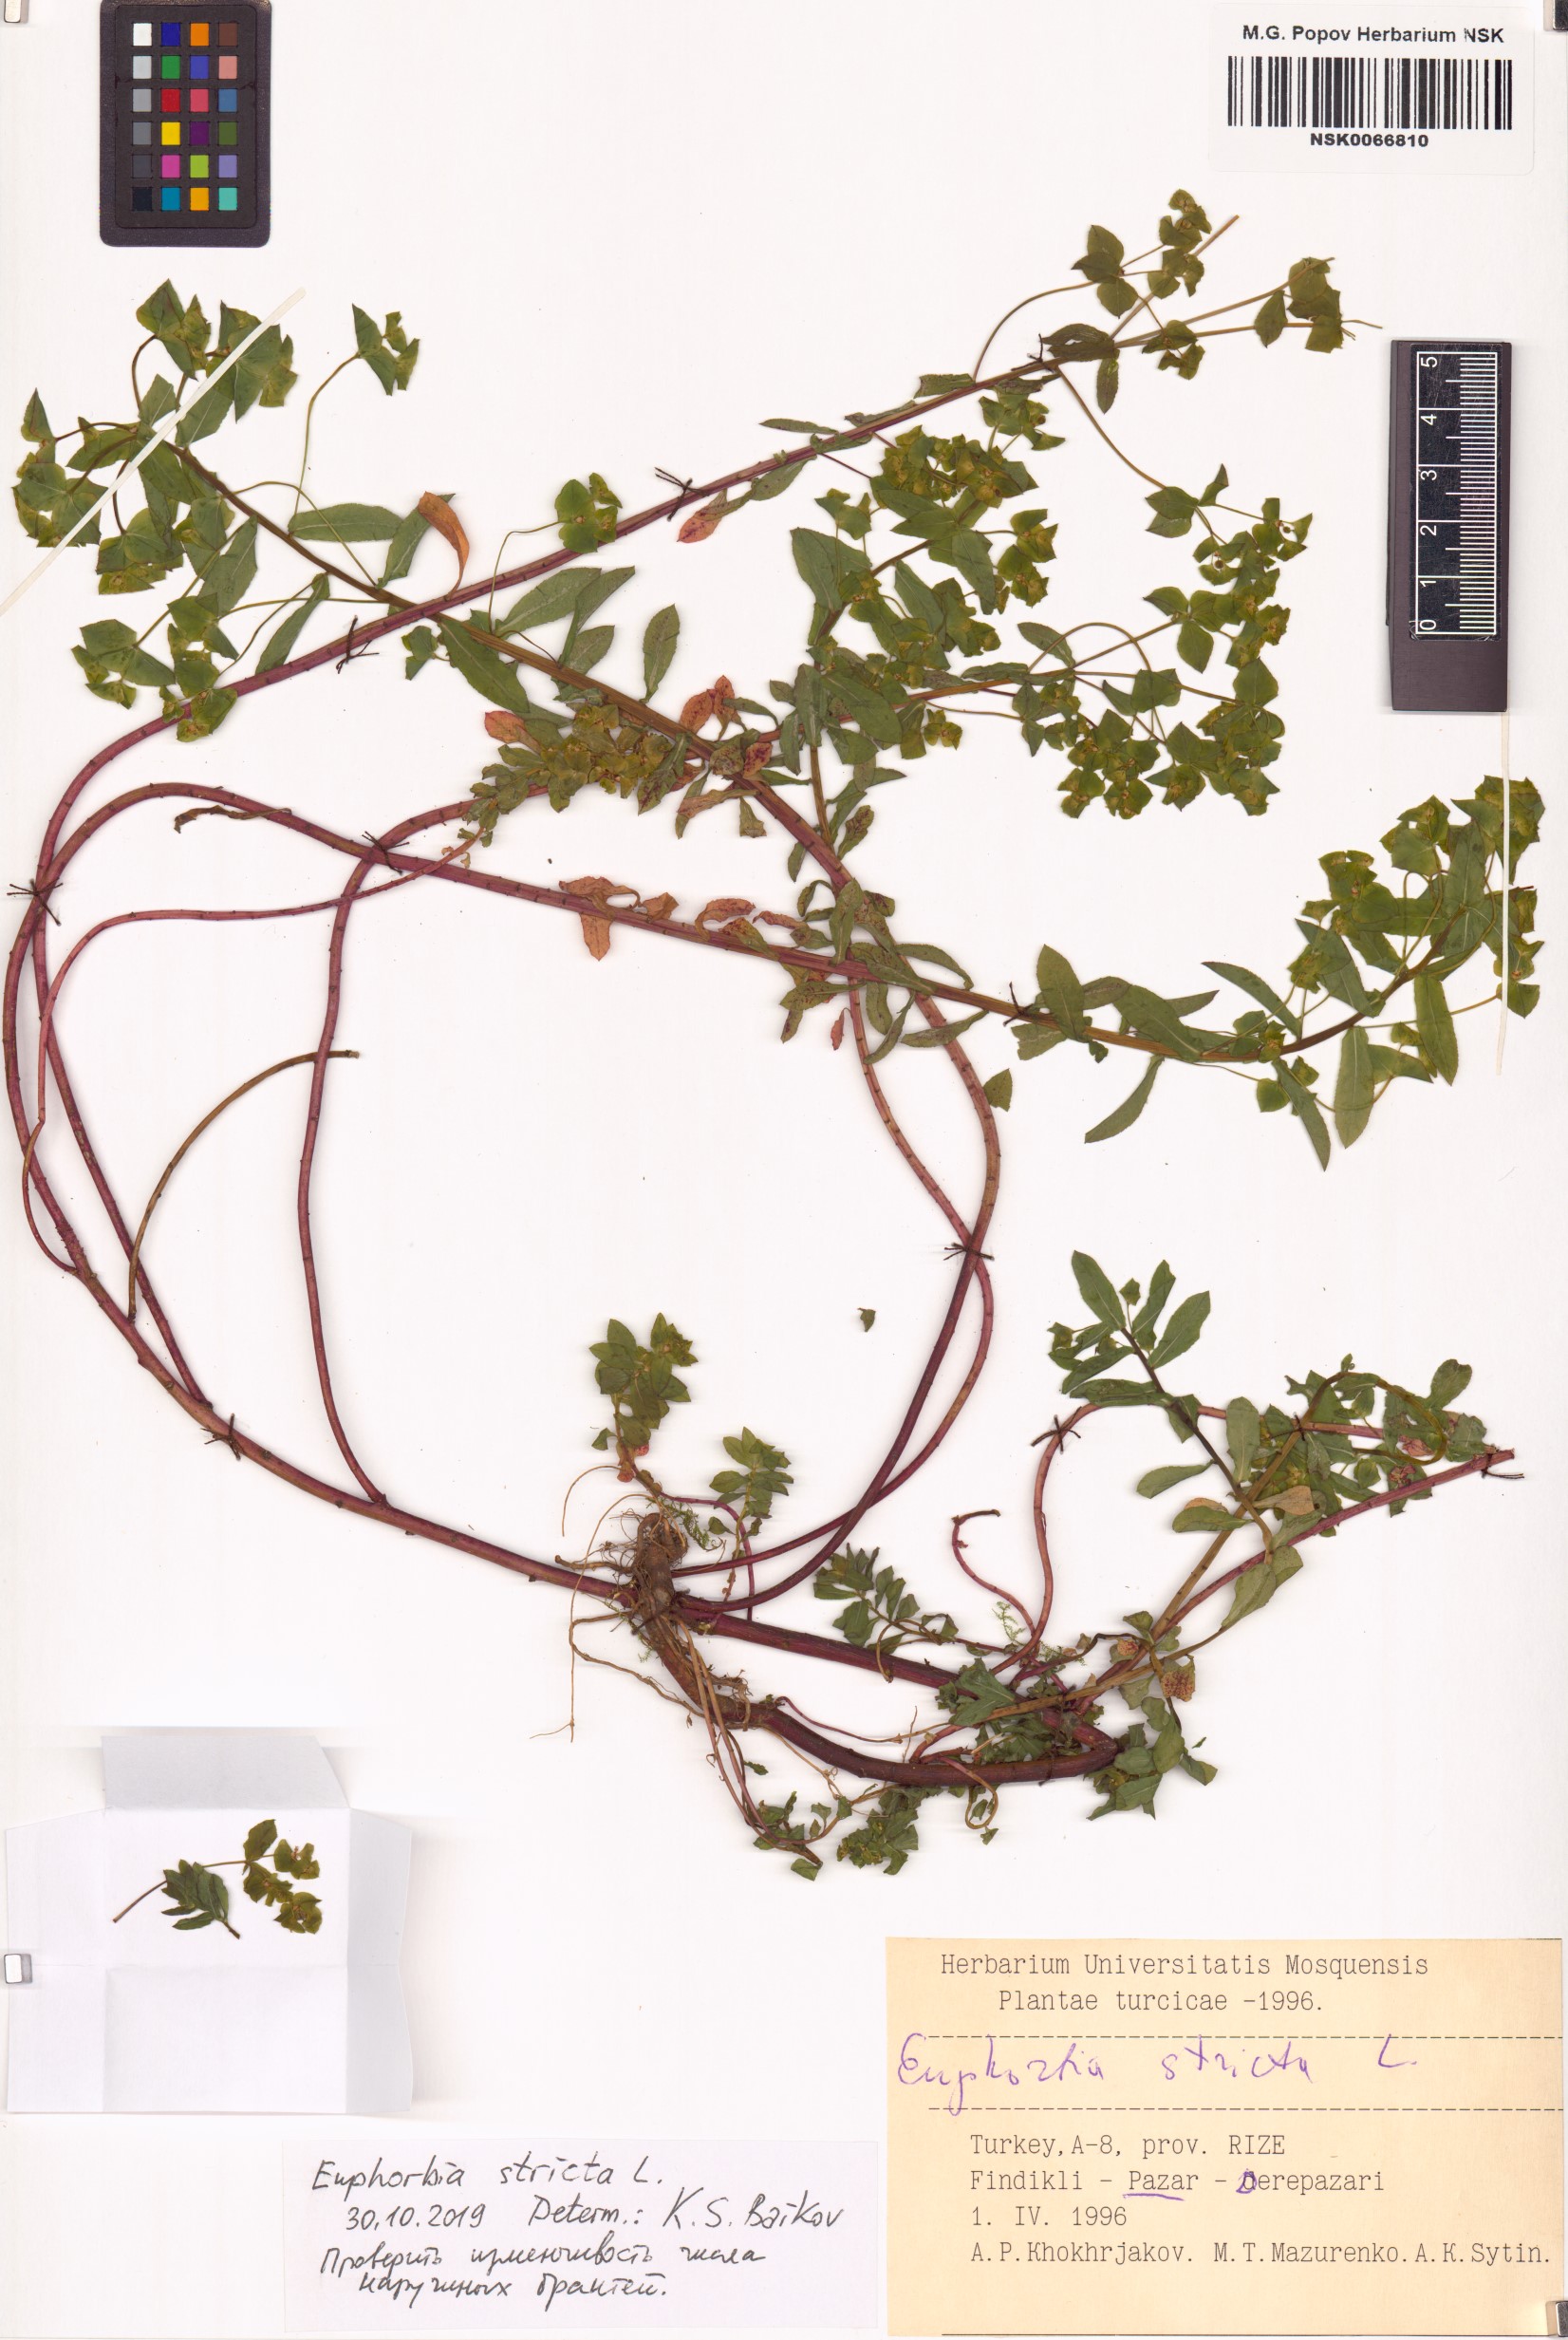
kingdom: Plantae
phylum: Tracheophyta
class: Magnoliopsida
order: Malpighiales
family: Euphorbiaceae
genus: Euphorbia
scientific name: Euphorbia stricta
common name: Upright spurge
